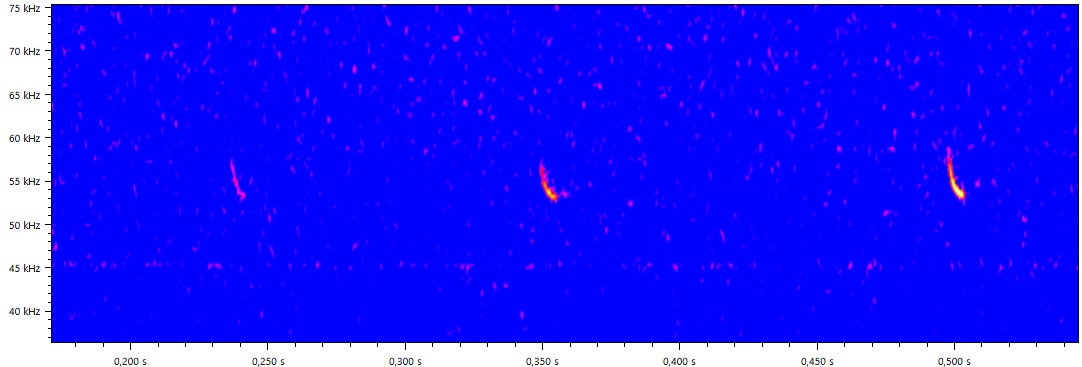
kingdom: Animalia
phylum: Chordata
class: Mammalia
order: Chiroptera
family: Vespertilionidae
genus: Pipistrellus
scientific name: Pipistrellus pygmaeus
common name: Dværgflagermus
